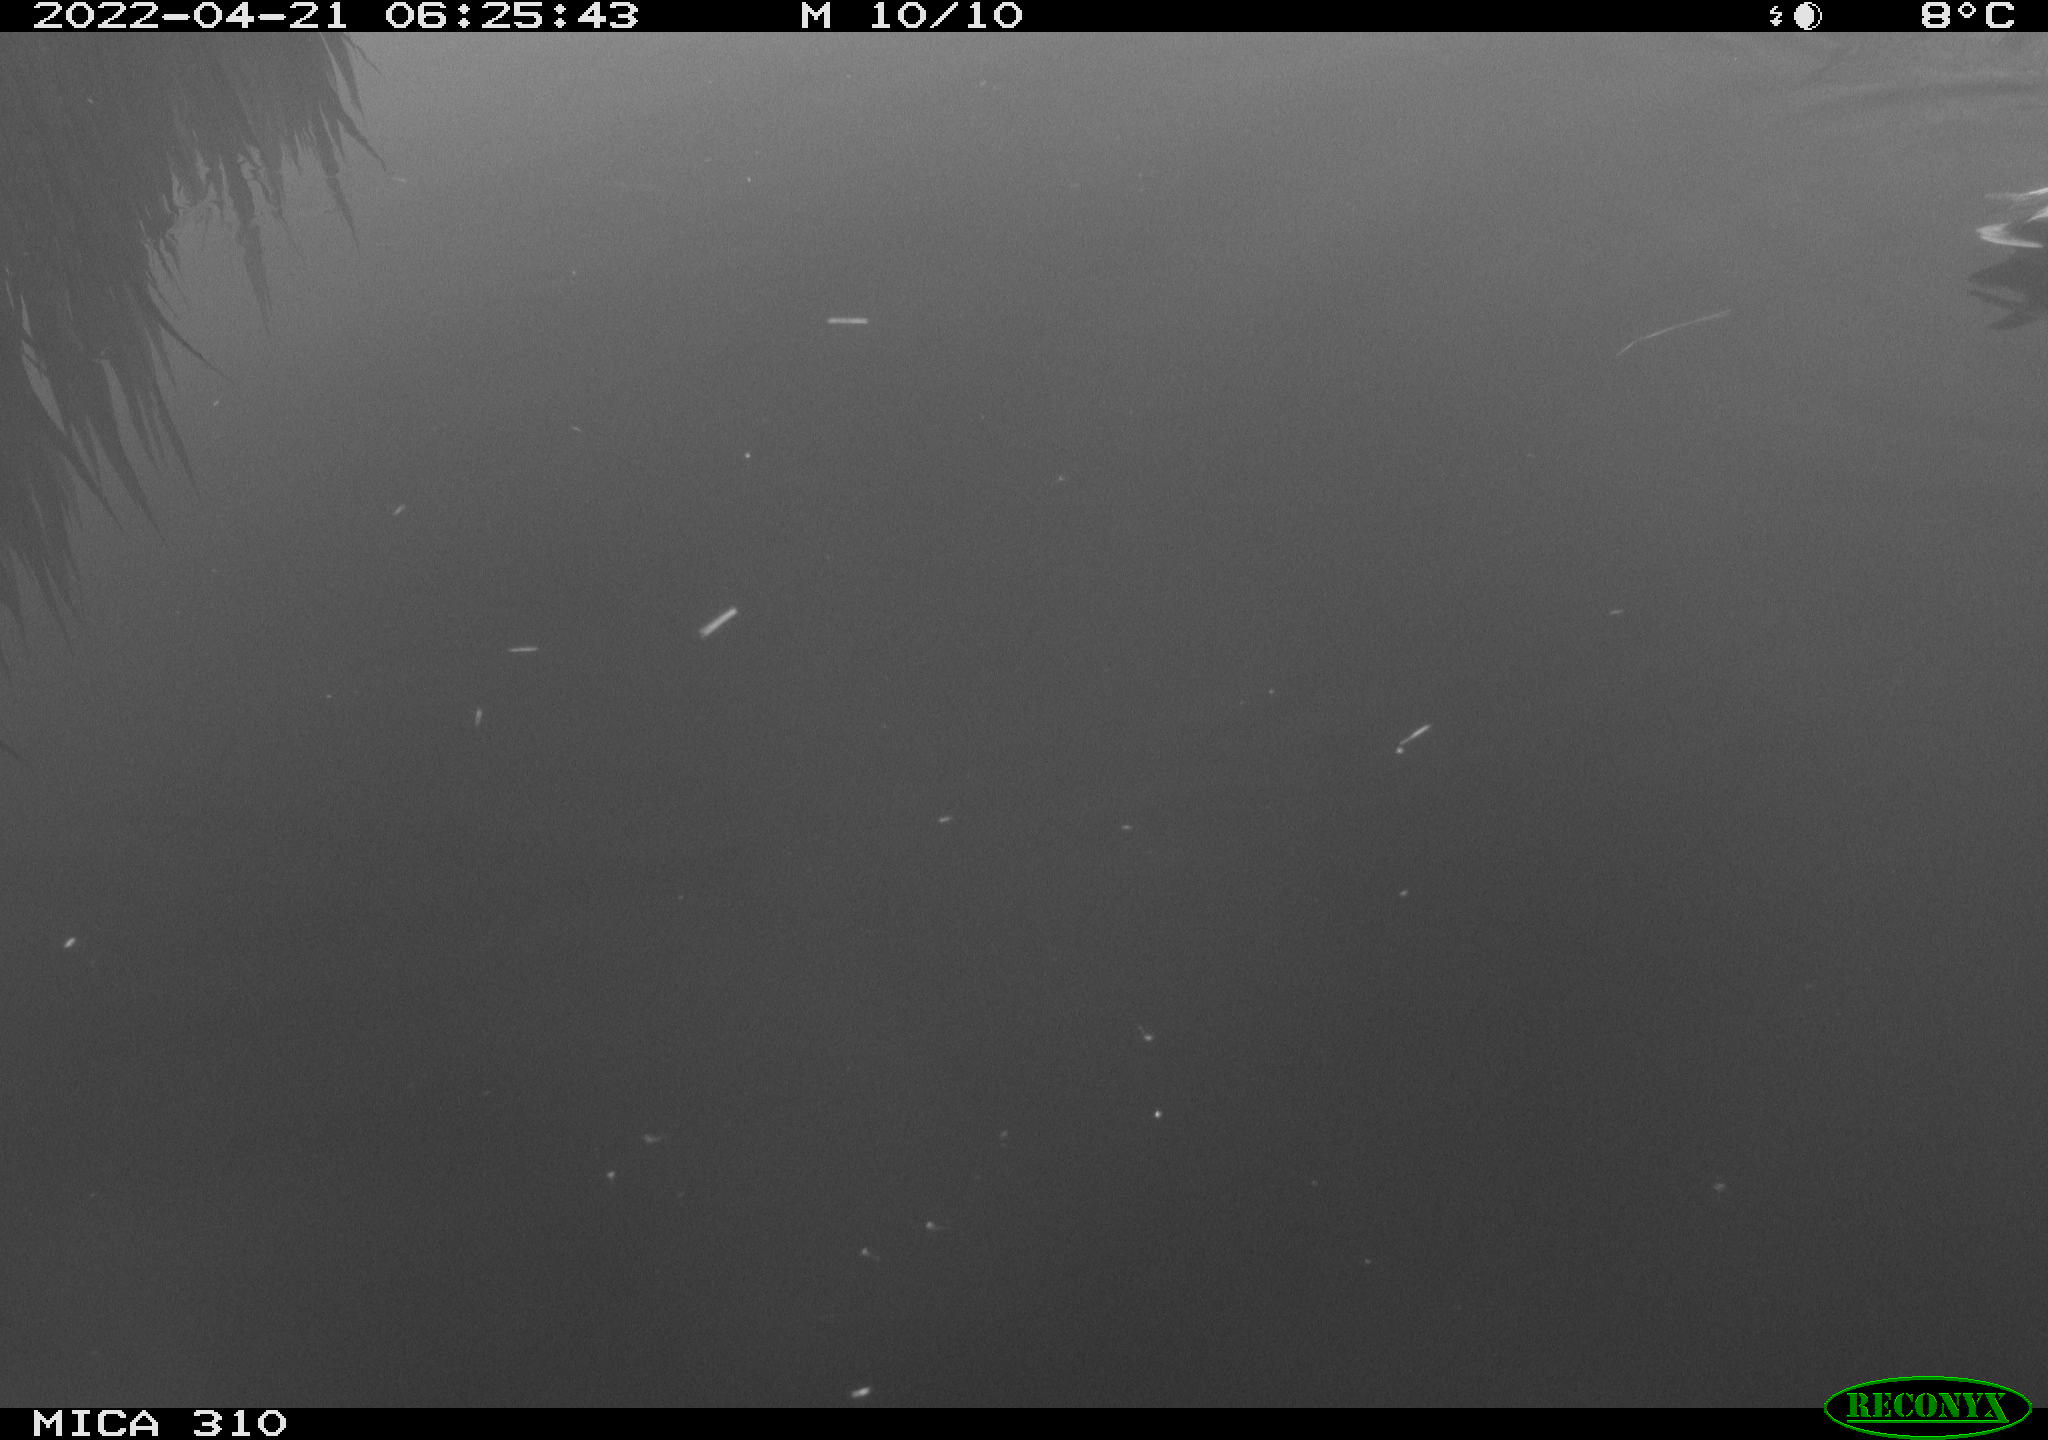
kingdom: Animalia
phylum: Chordata
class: Aves
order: Anseriformes
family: Anatidae
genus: Mareca
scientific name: Mareca strepera
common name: Gadwall
